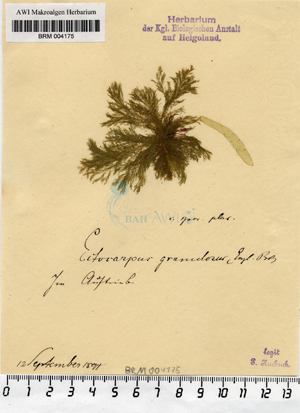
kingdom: Chromista
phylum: Ochrophyta
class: Phaeophyceae
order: Ectocarpales
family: Acinetosporaceae
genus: Hincksia
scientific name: Hincksia granulosa
